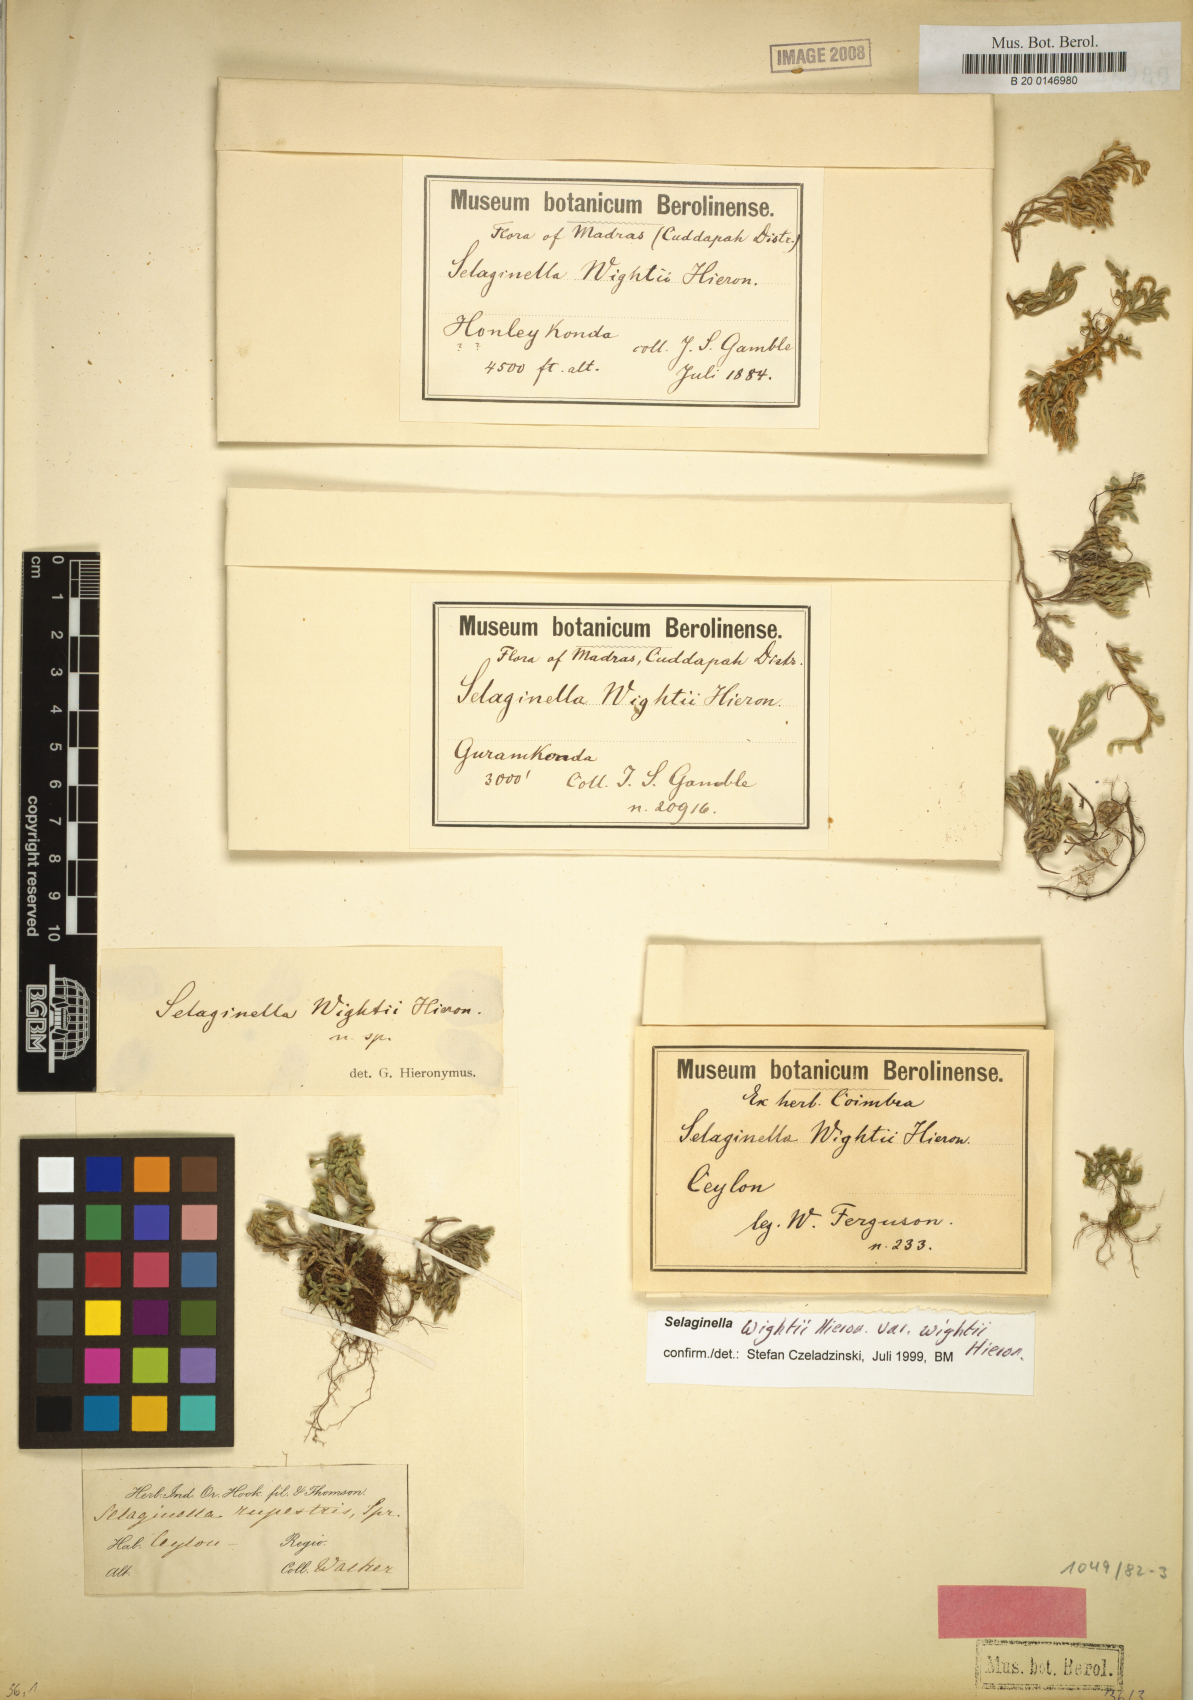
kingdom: Plantae
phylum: Tracheophyta
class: Lycopodiopsida
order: Selaginellales
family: Selaginellaceae
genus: Selaginella
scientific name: Selaginella wightii
